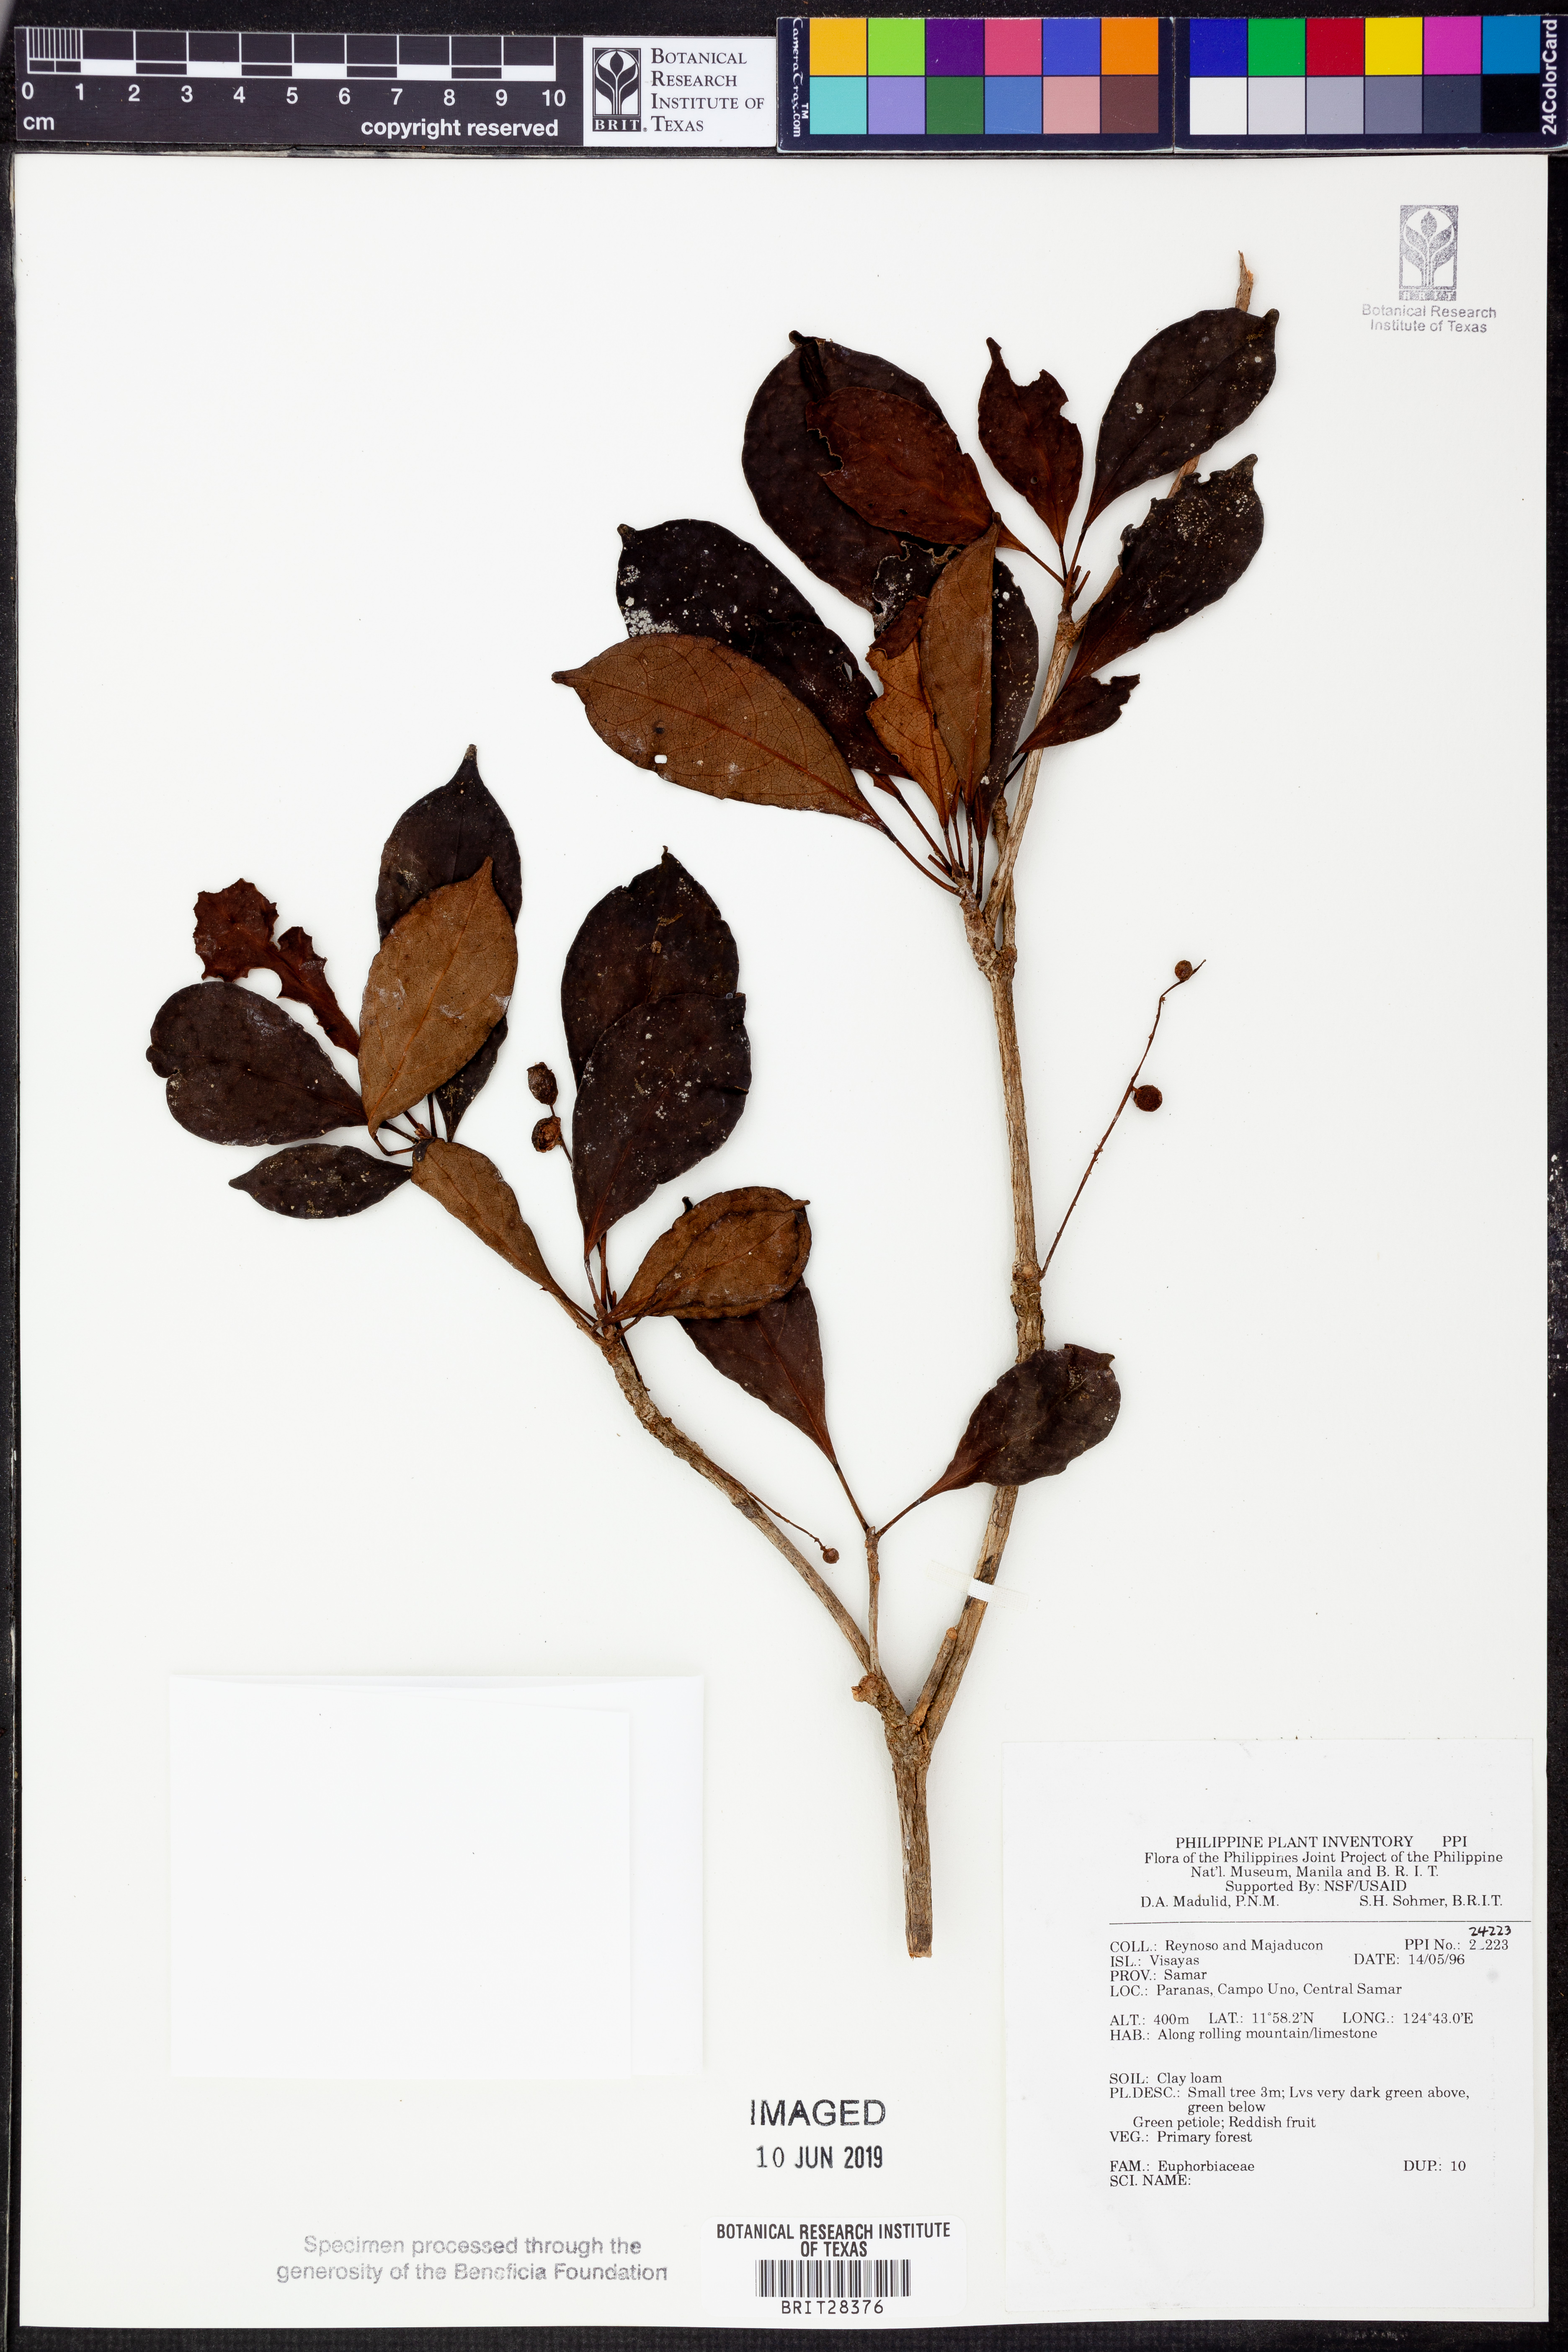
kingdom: Plantae
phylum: Tracheophyta
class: Magnoliopsida
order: Malpighiales
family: Euphorbiaceae
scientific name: Euphorbiaceae
